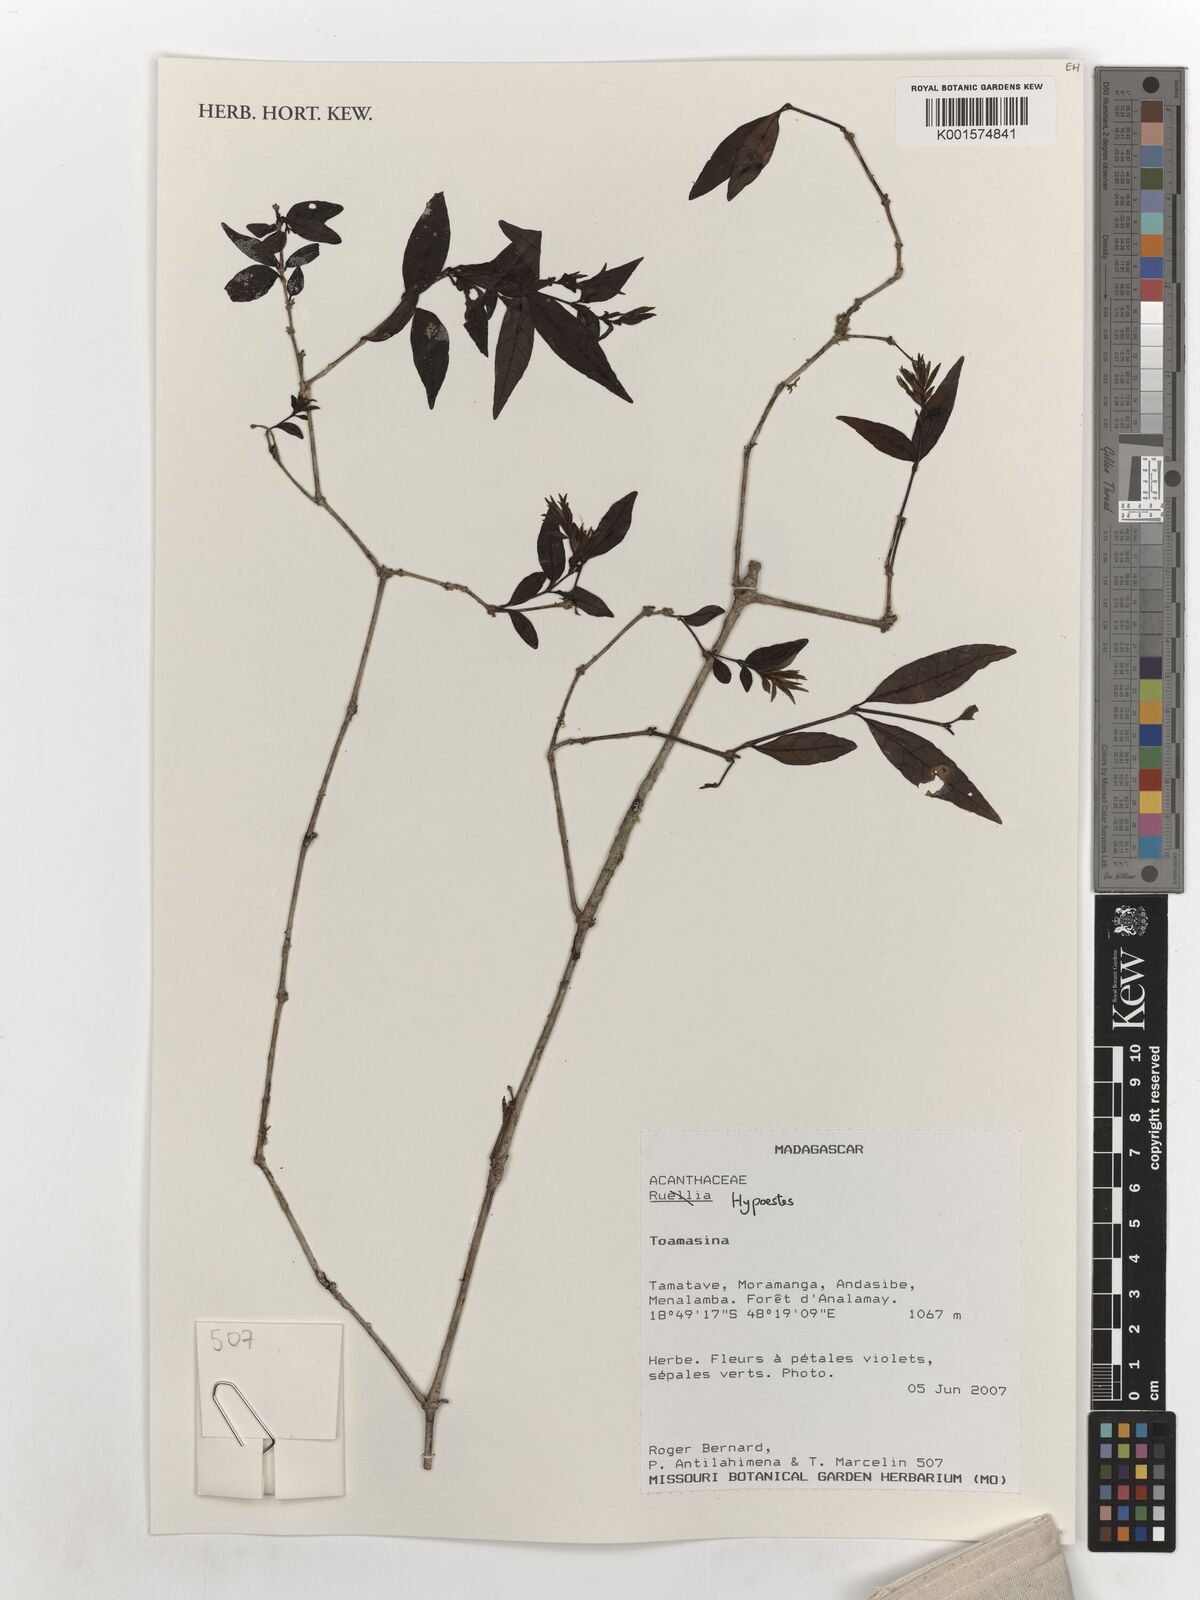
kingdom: Plantae
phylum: Tracheophyta
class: Magnoliopsida
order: Lamiales
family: Acanthaceae
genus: Hypoestes
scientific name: Hypoestes
